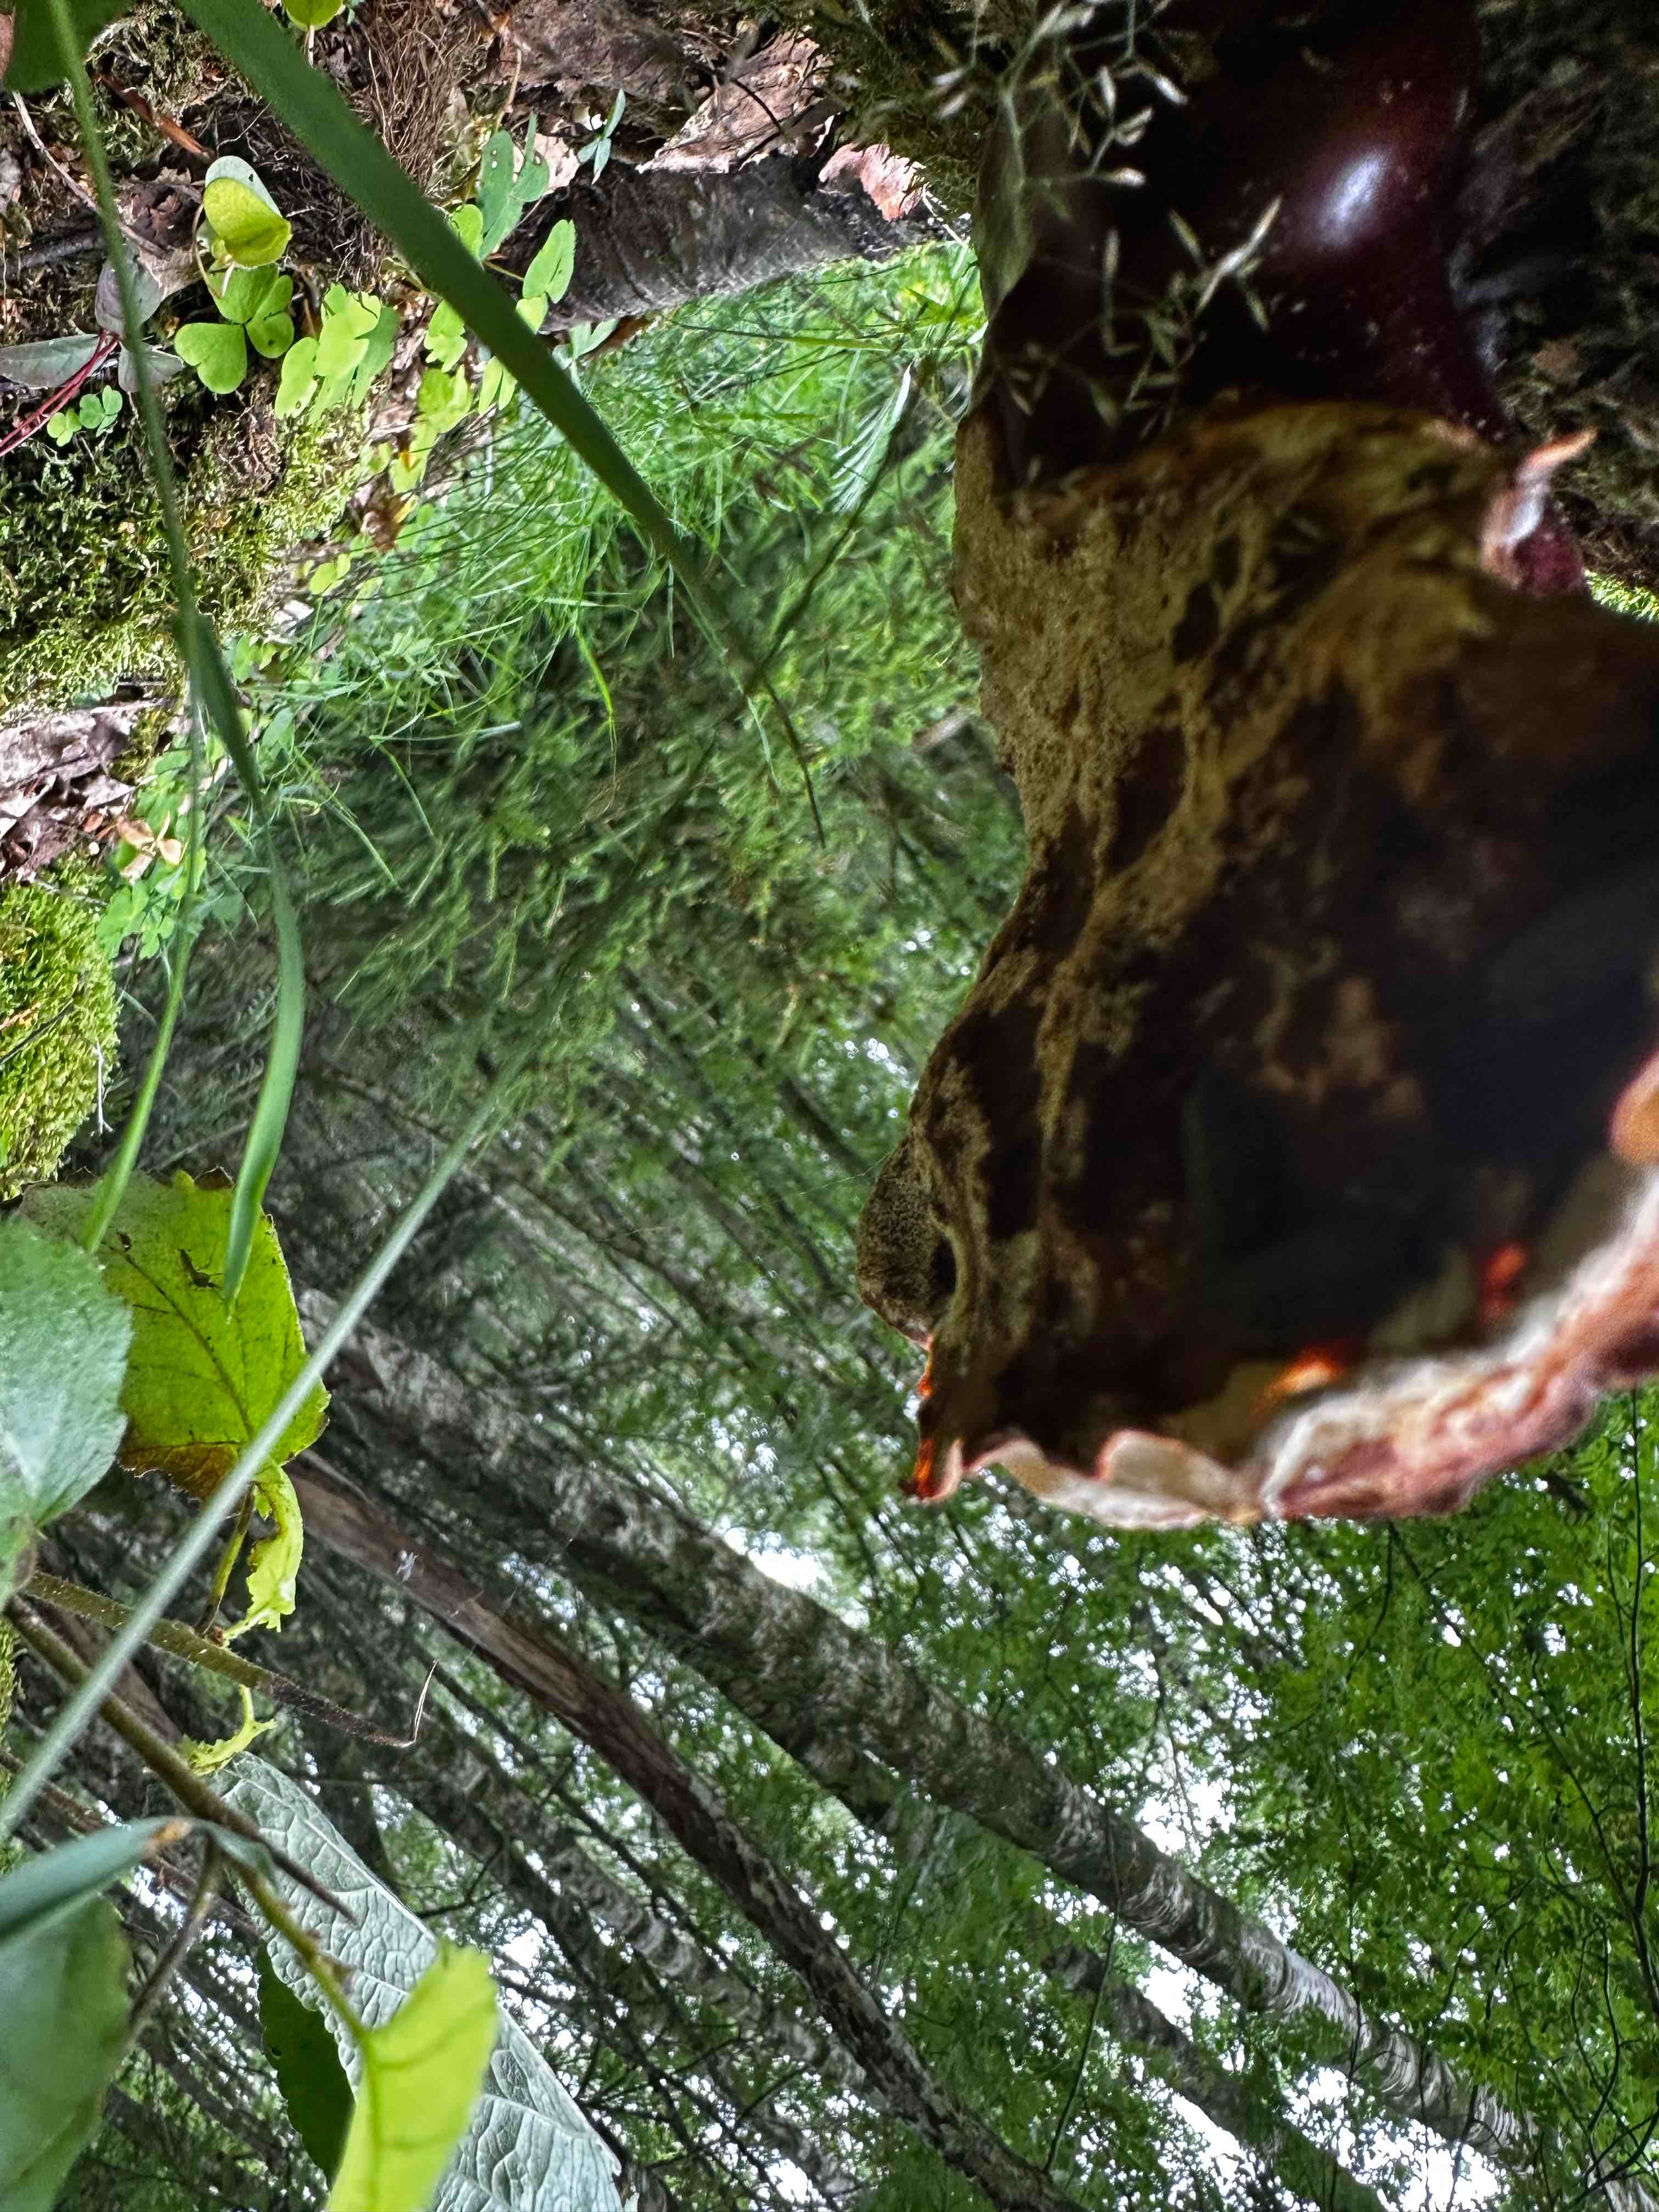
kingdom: Fungi
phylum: Basidiomycota
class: Agaricomycetes
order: Polyporales
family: Polyporaceae
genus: Ganoderma
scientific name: Ganoderma lucidum
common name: skinnende lakporesvamp
